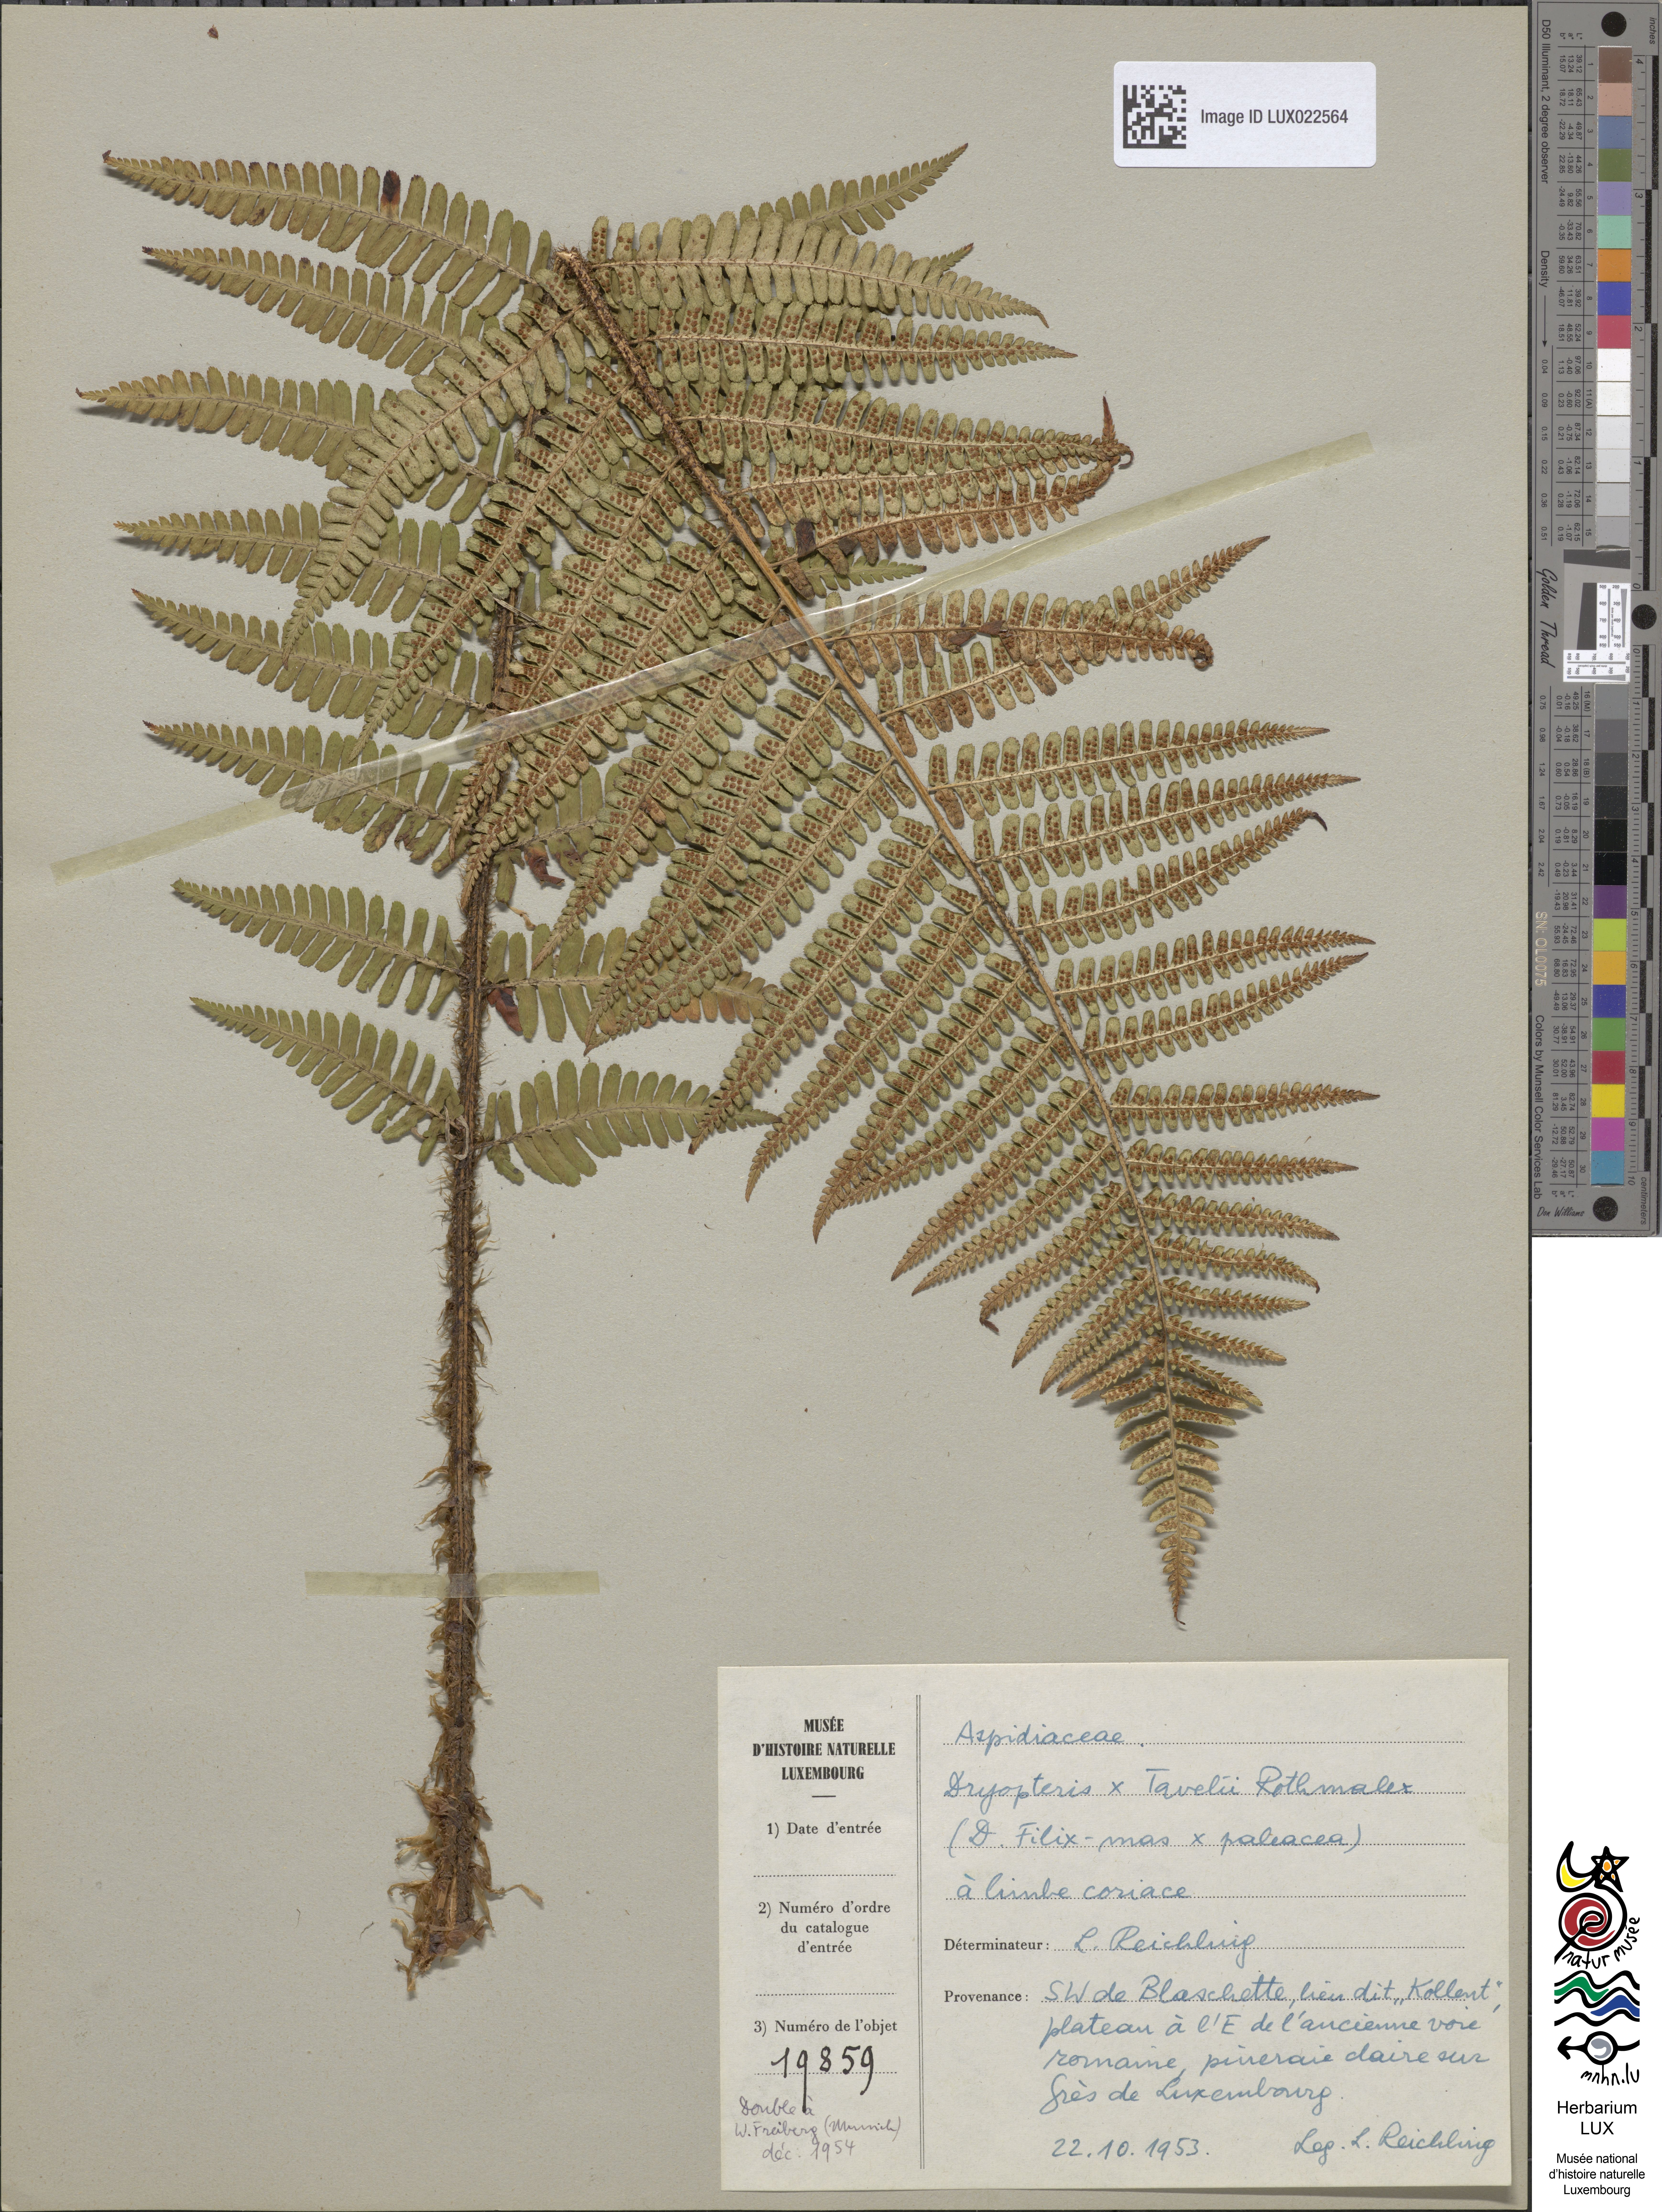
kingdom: Plantae
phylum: Tracheophyta
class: Polypodiopsida
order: Polypodiales
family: Dryopteridaceae
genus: Dryopteris
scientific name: Dryopteris borreri
